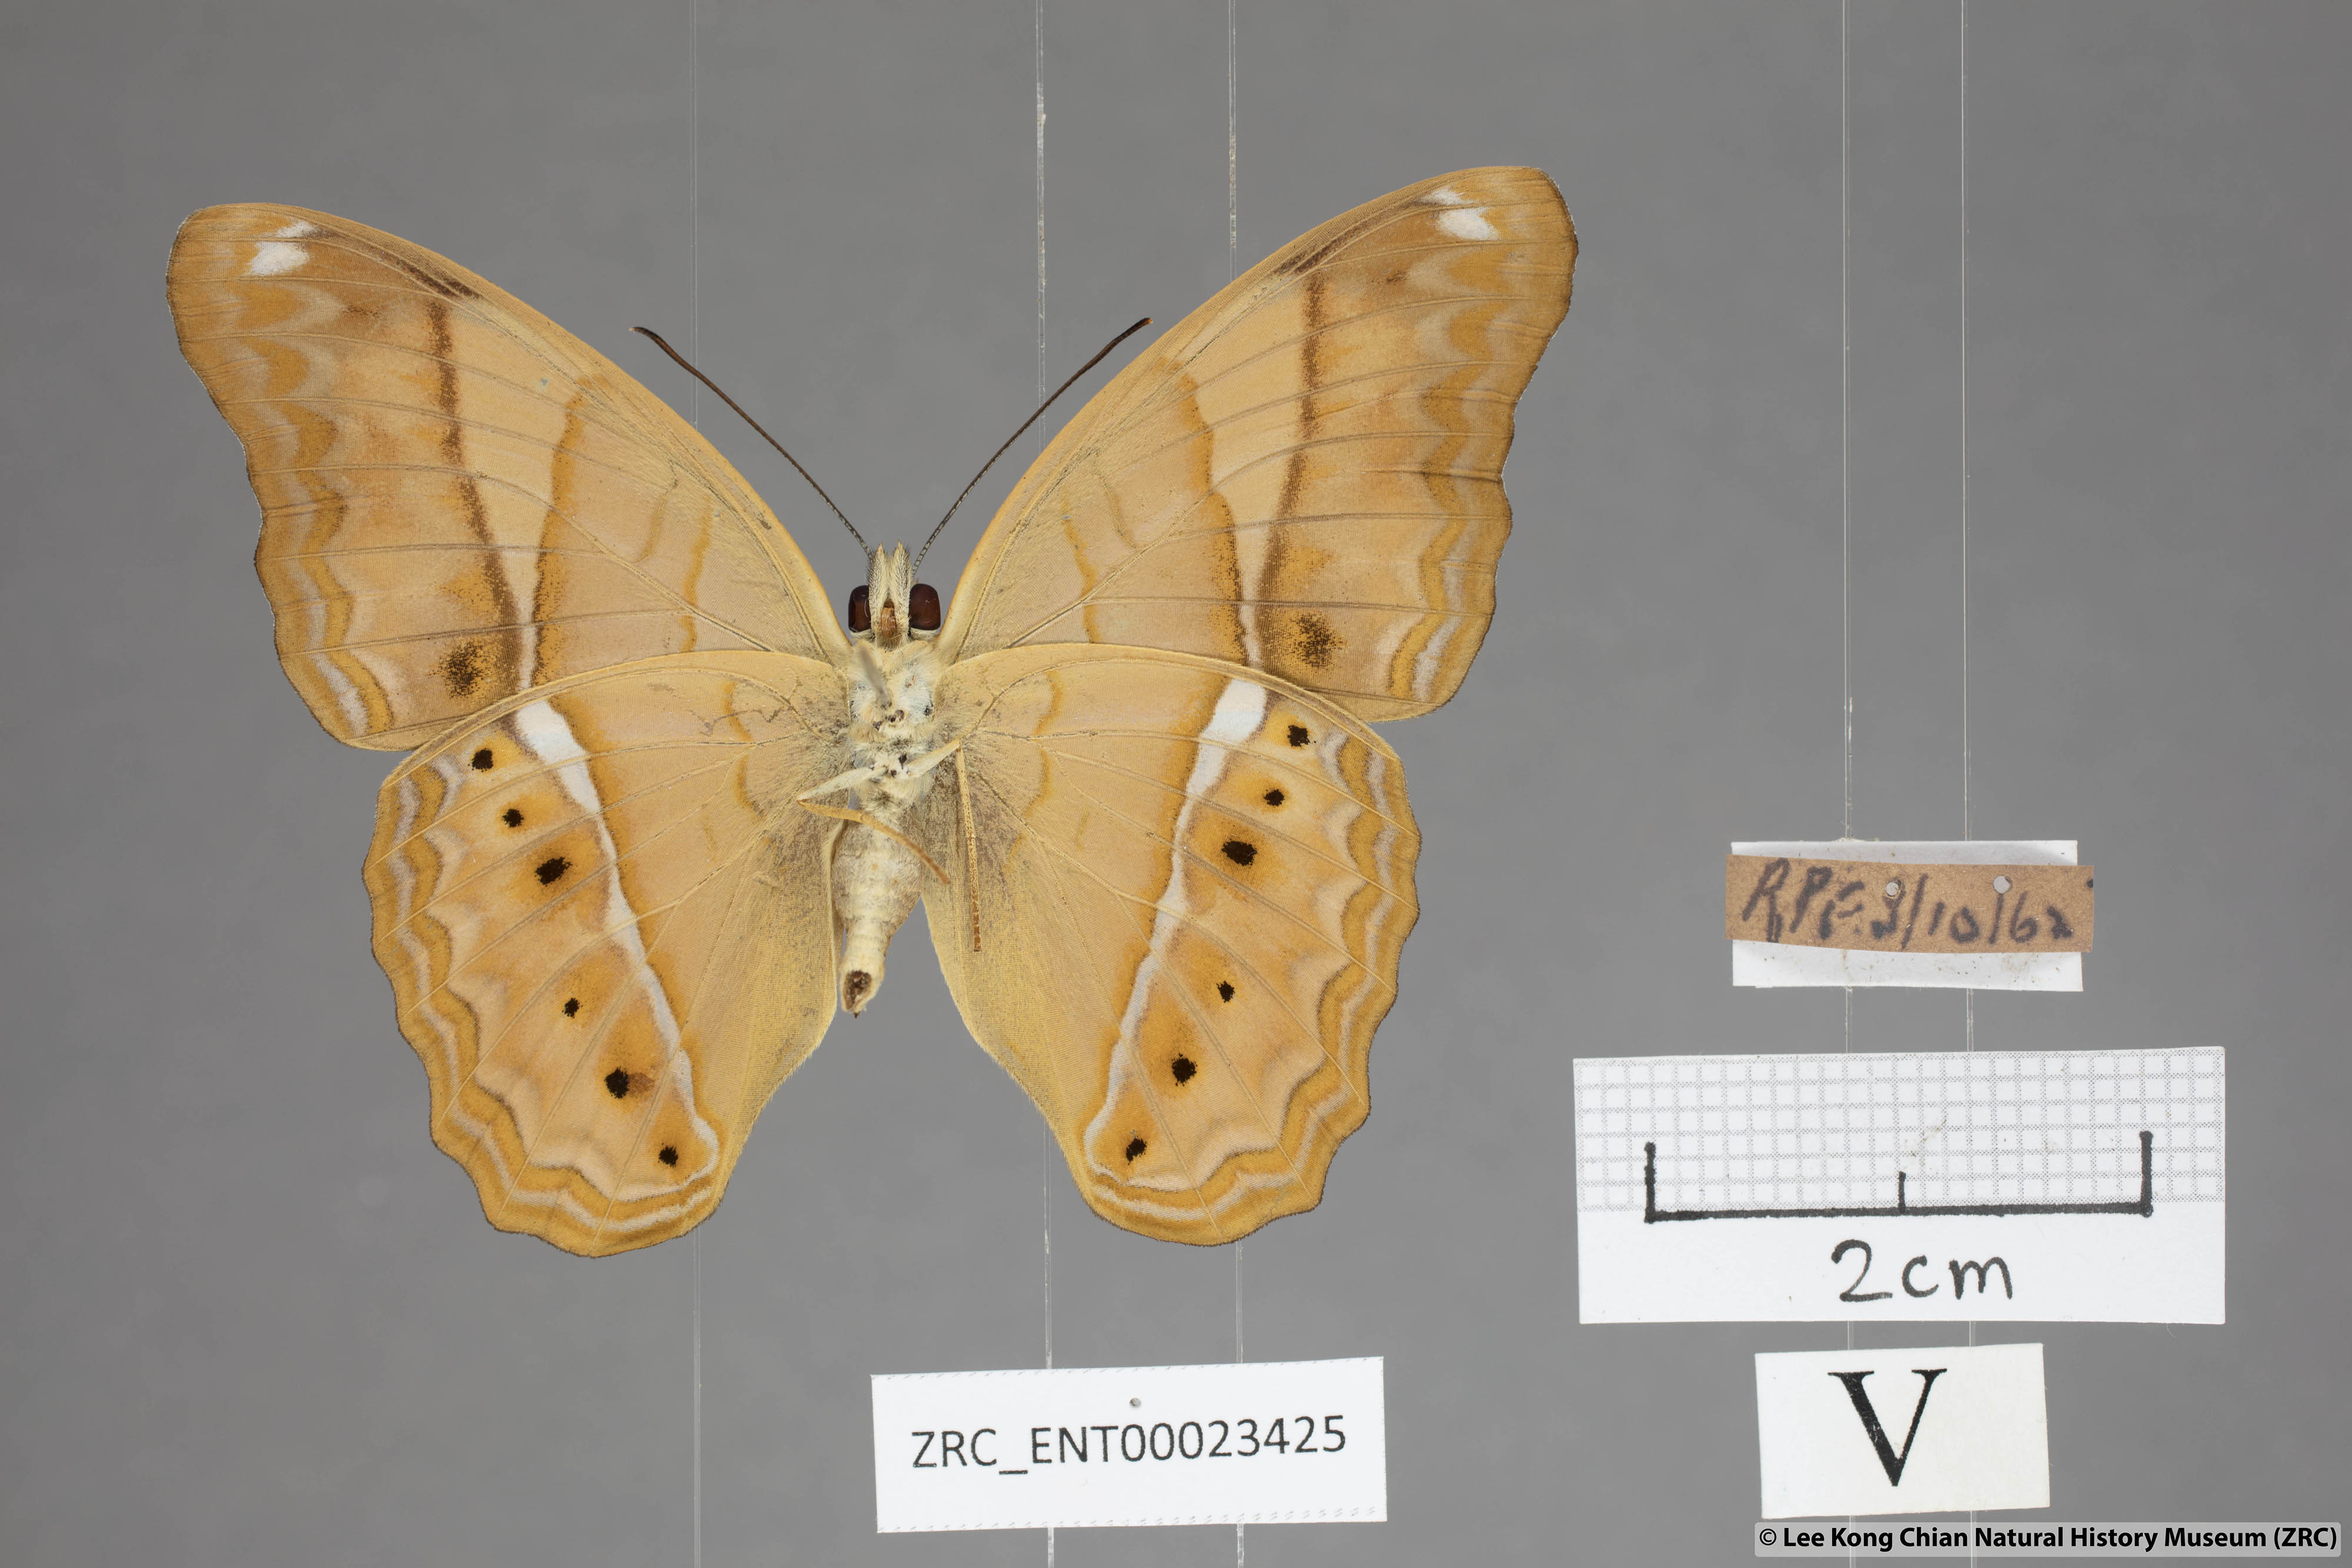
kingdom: Animalia
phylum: Arthropoda
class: Insecta
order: Lepidoptera
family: Nymphalidae
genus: Cirrochroa
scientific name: Cirrochroa emalea
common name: Malay yeoman
